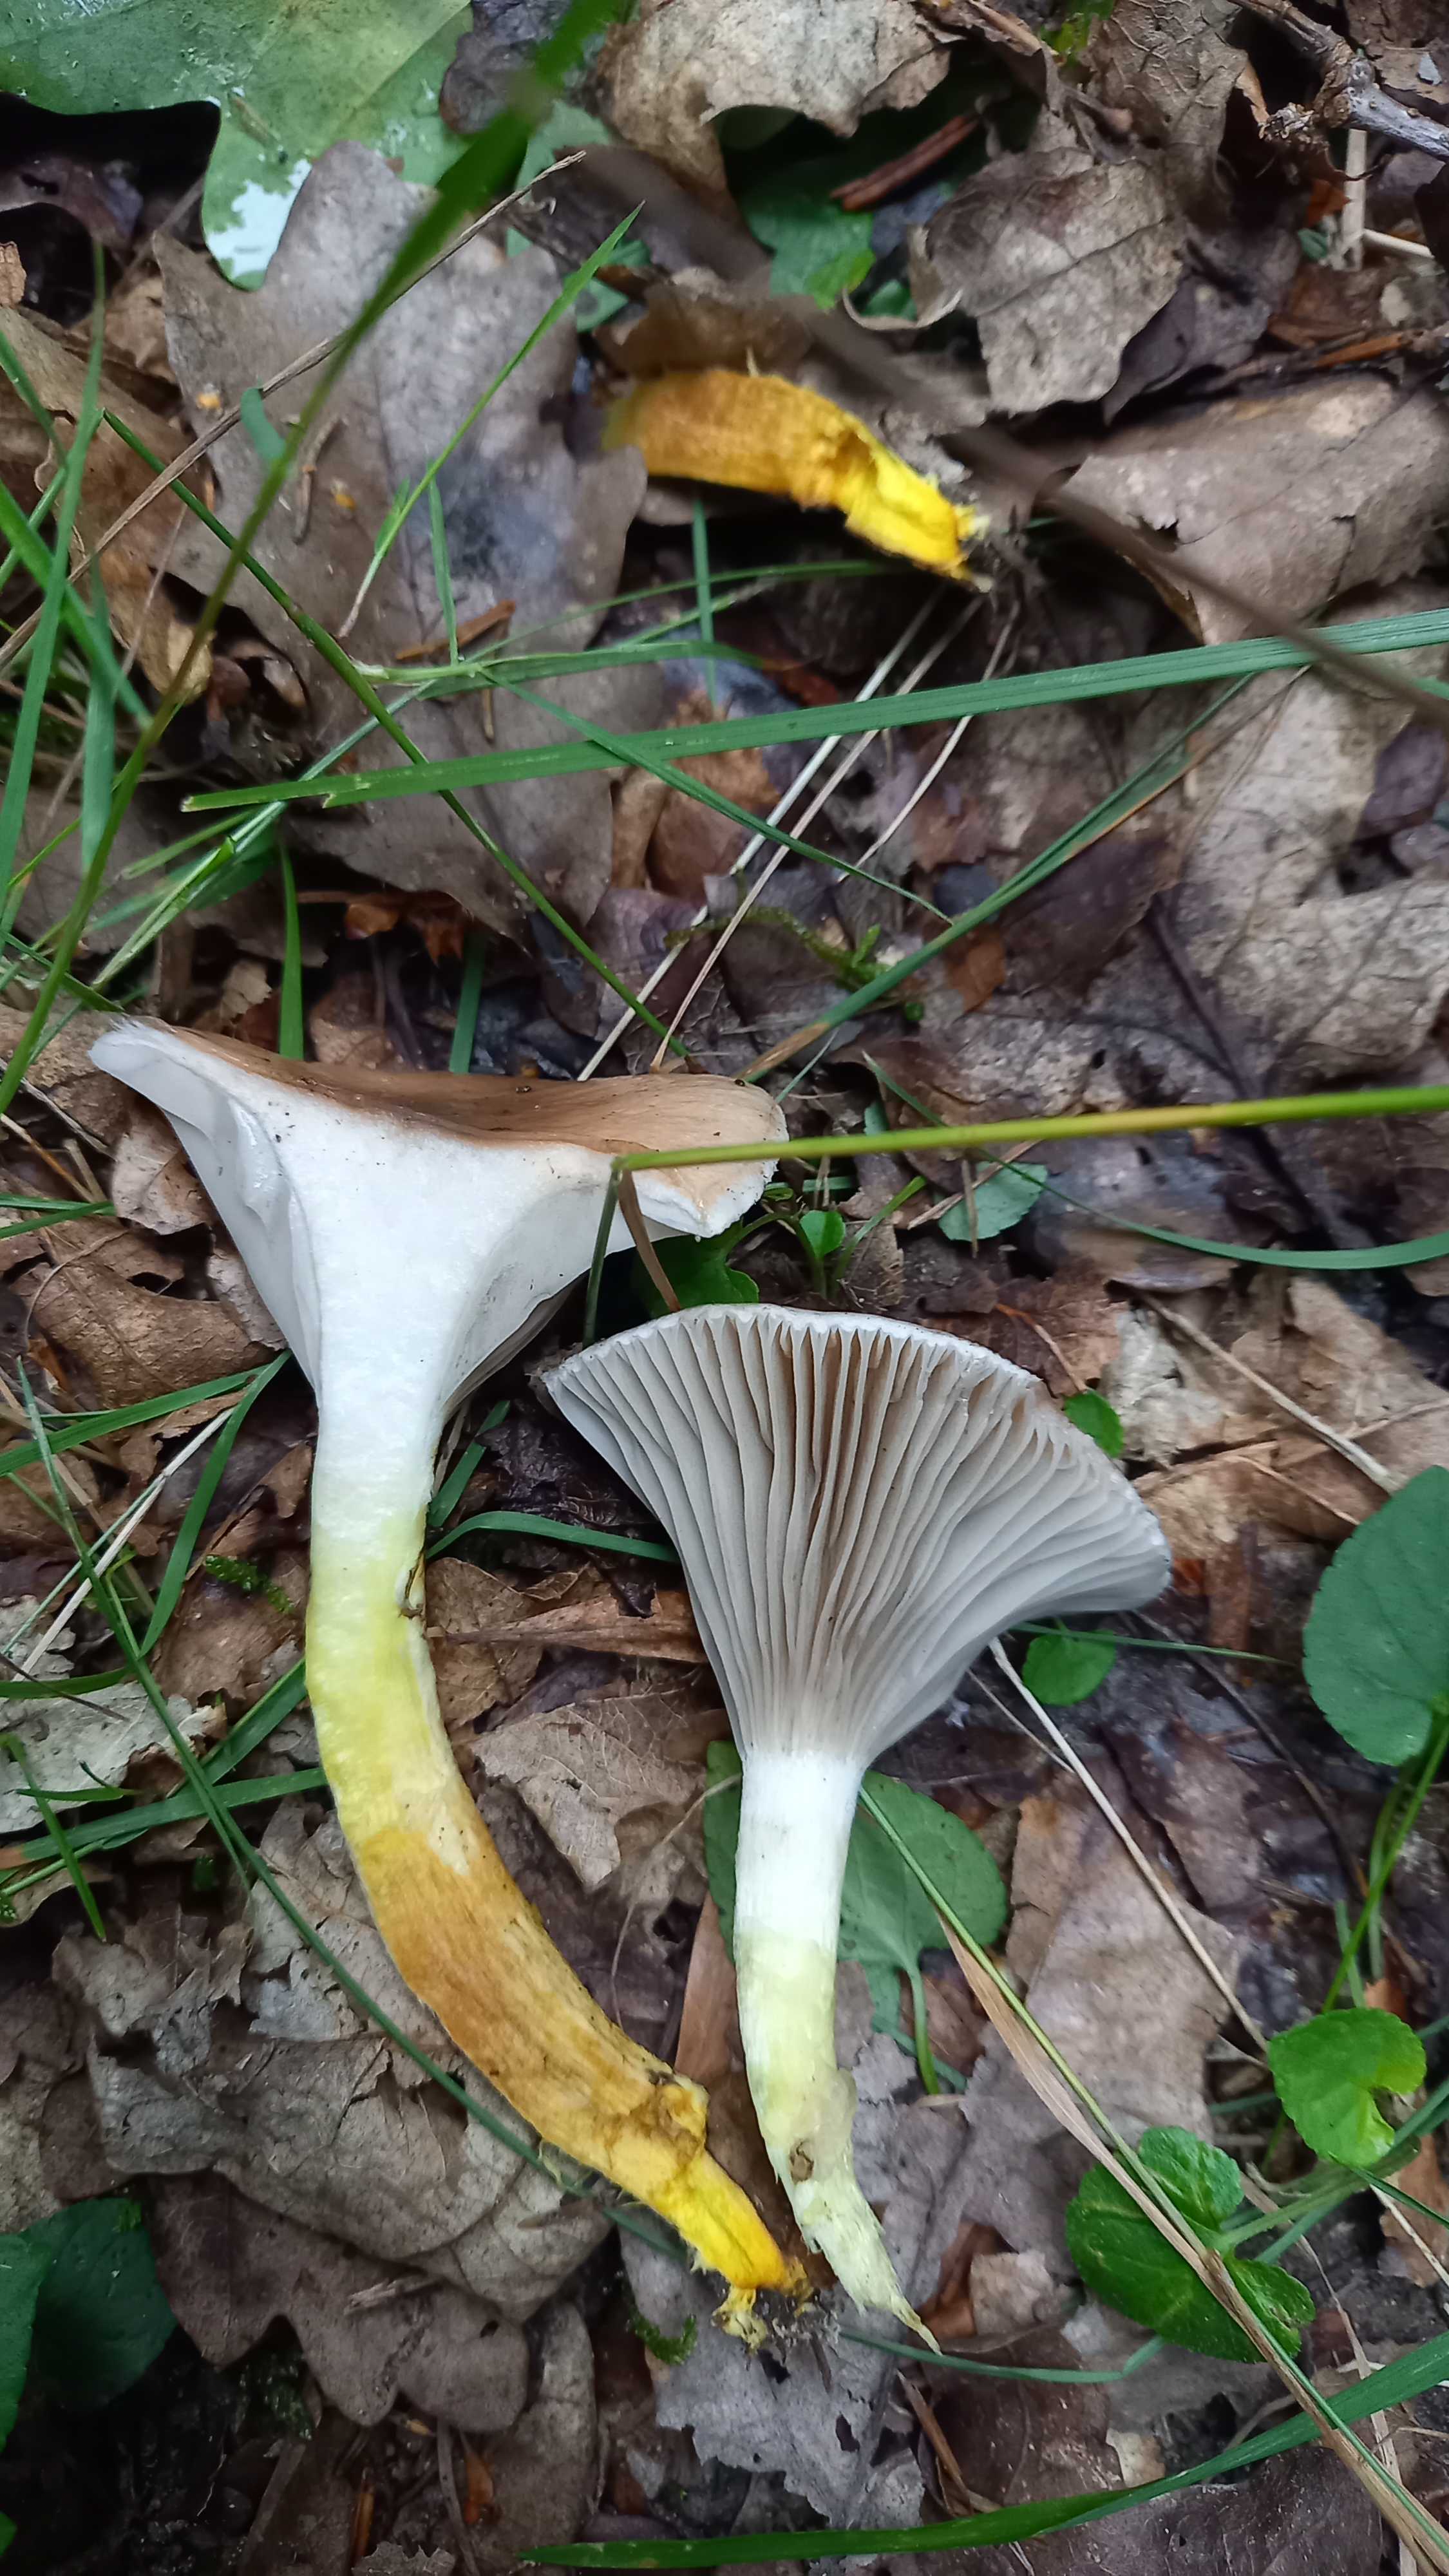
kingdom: Fungi
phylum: Basidiomycota
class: Agaricomycetes
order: Boletales
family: Gomphidiaceae
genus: Gomphidius
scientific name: Gomphidius glutinosus
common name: grå slimslør
